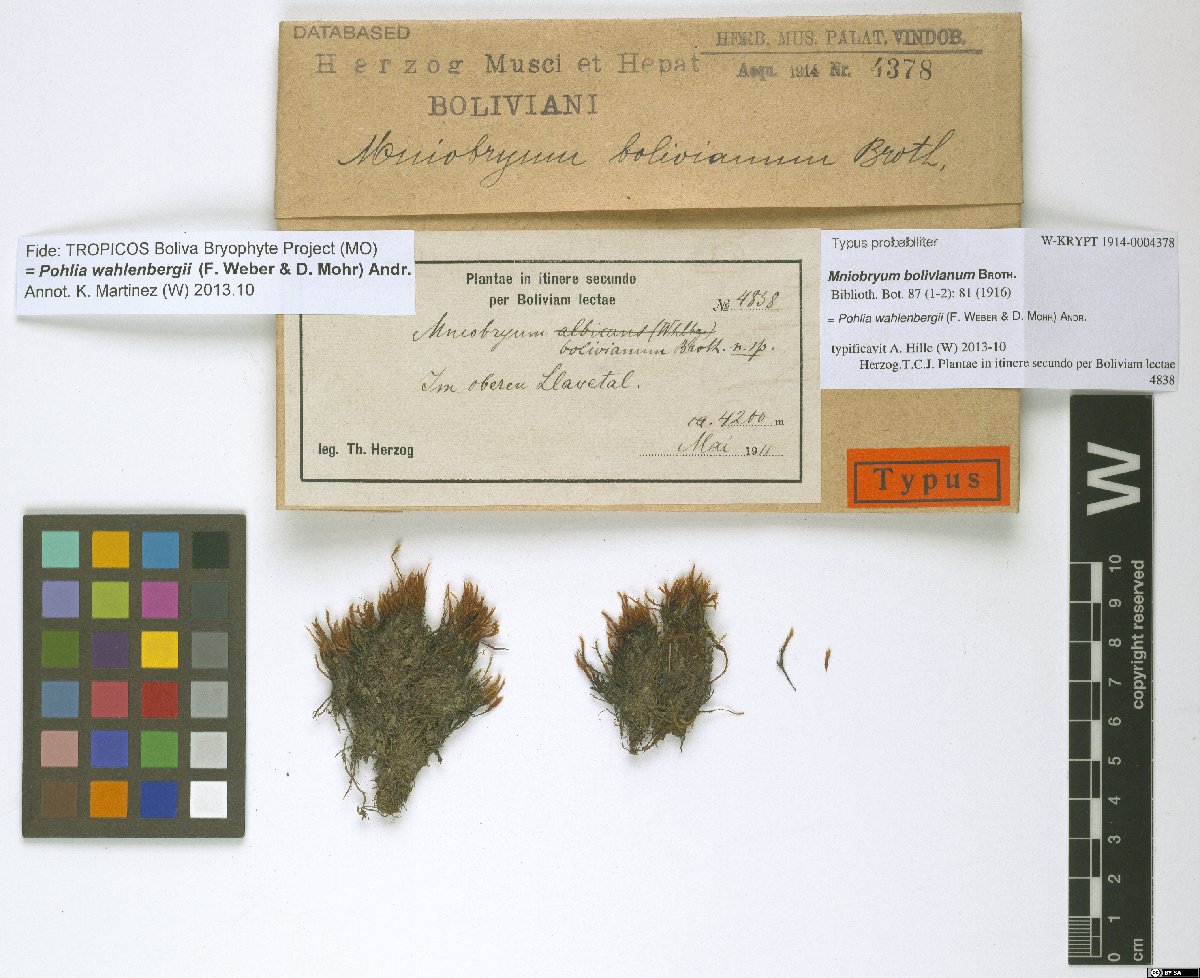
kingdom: Plantae
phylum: Bryophyta
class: Bryopsida
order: Bryales
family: Mniaceae
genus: Pohlia
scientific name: Pohlia wahlenbergii
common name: Wahlenberg's nodding moss
